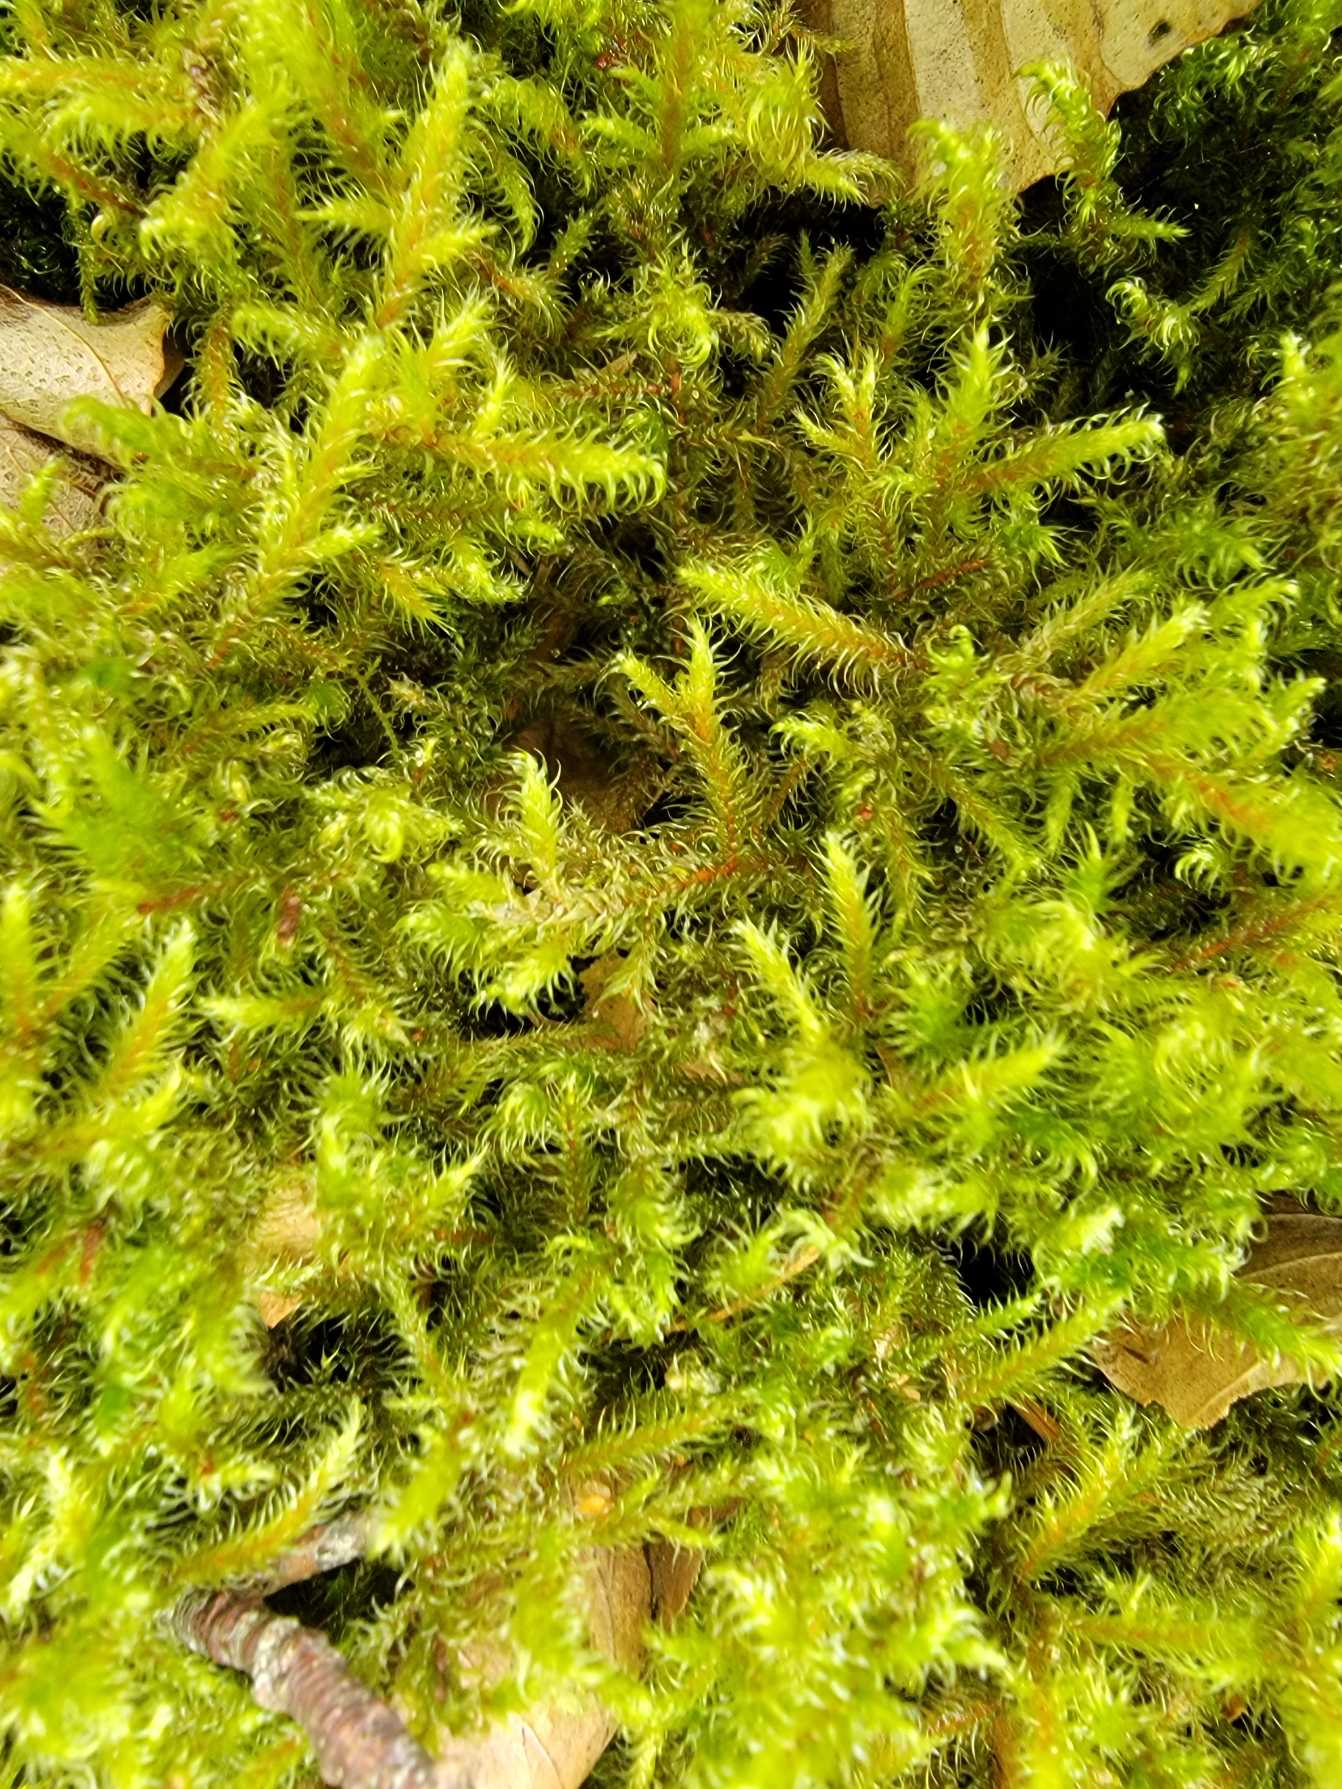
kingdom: Plantae
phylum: Bryophyta
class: Bryopsida
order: Hypnales
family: Hylocomiaceae
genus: Rhytidiadelphus
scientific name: Rhytidiadelphus loreus
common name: Ulvefod-kransemos
